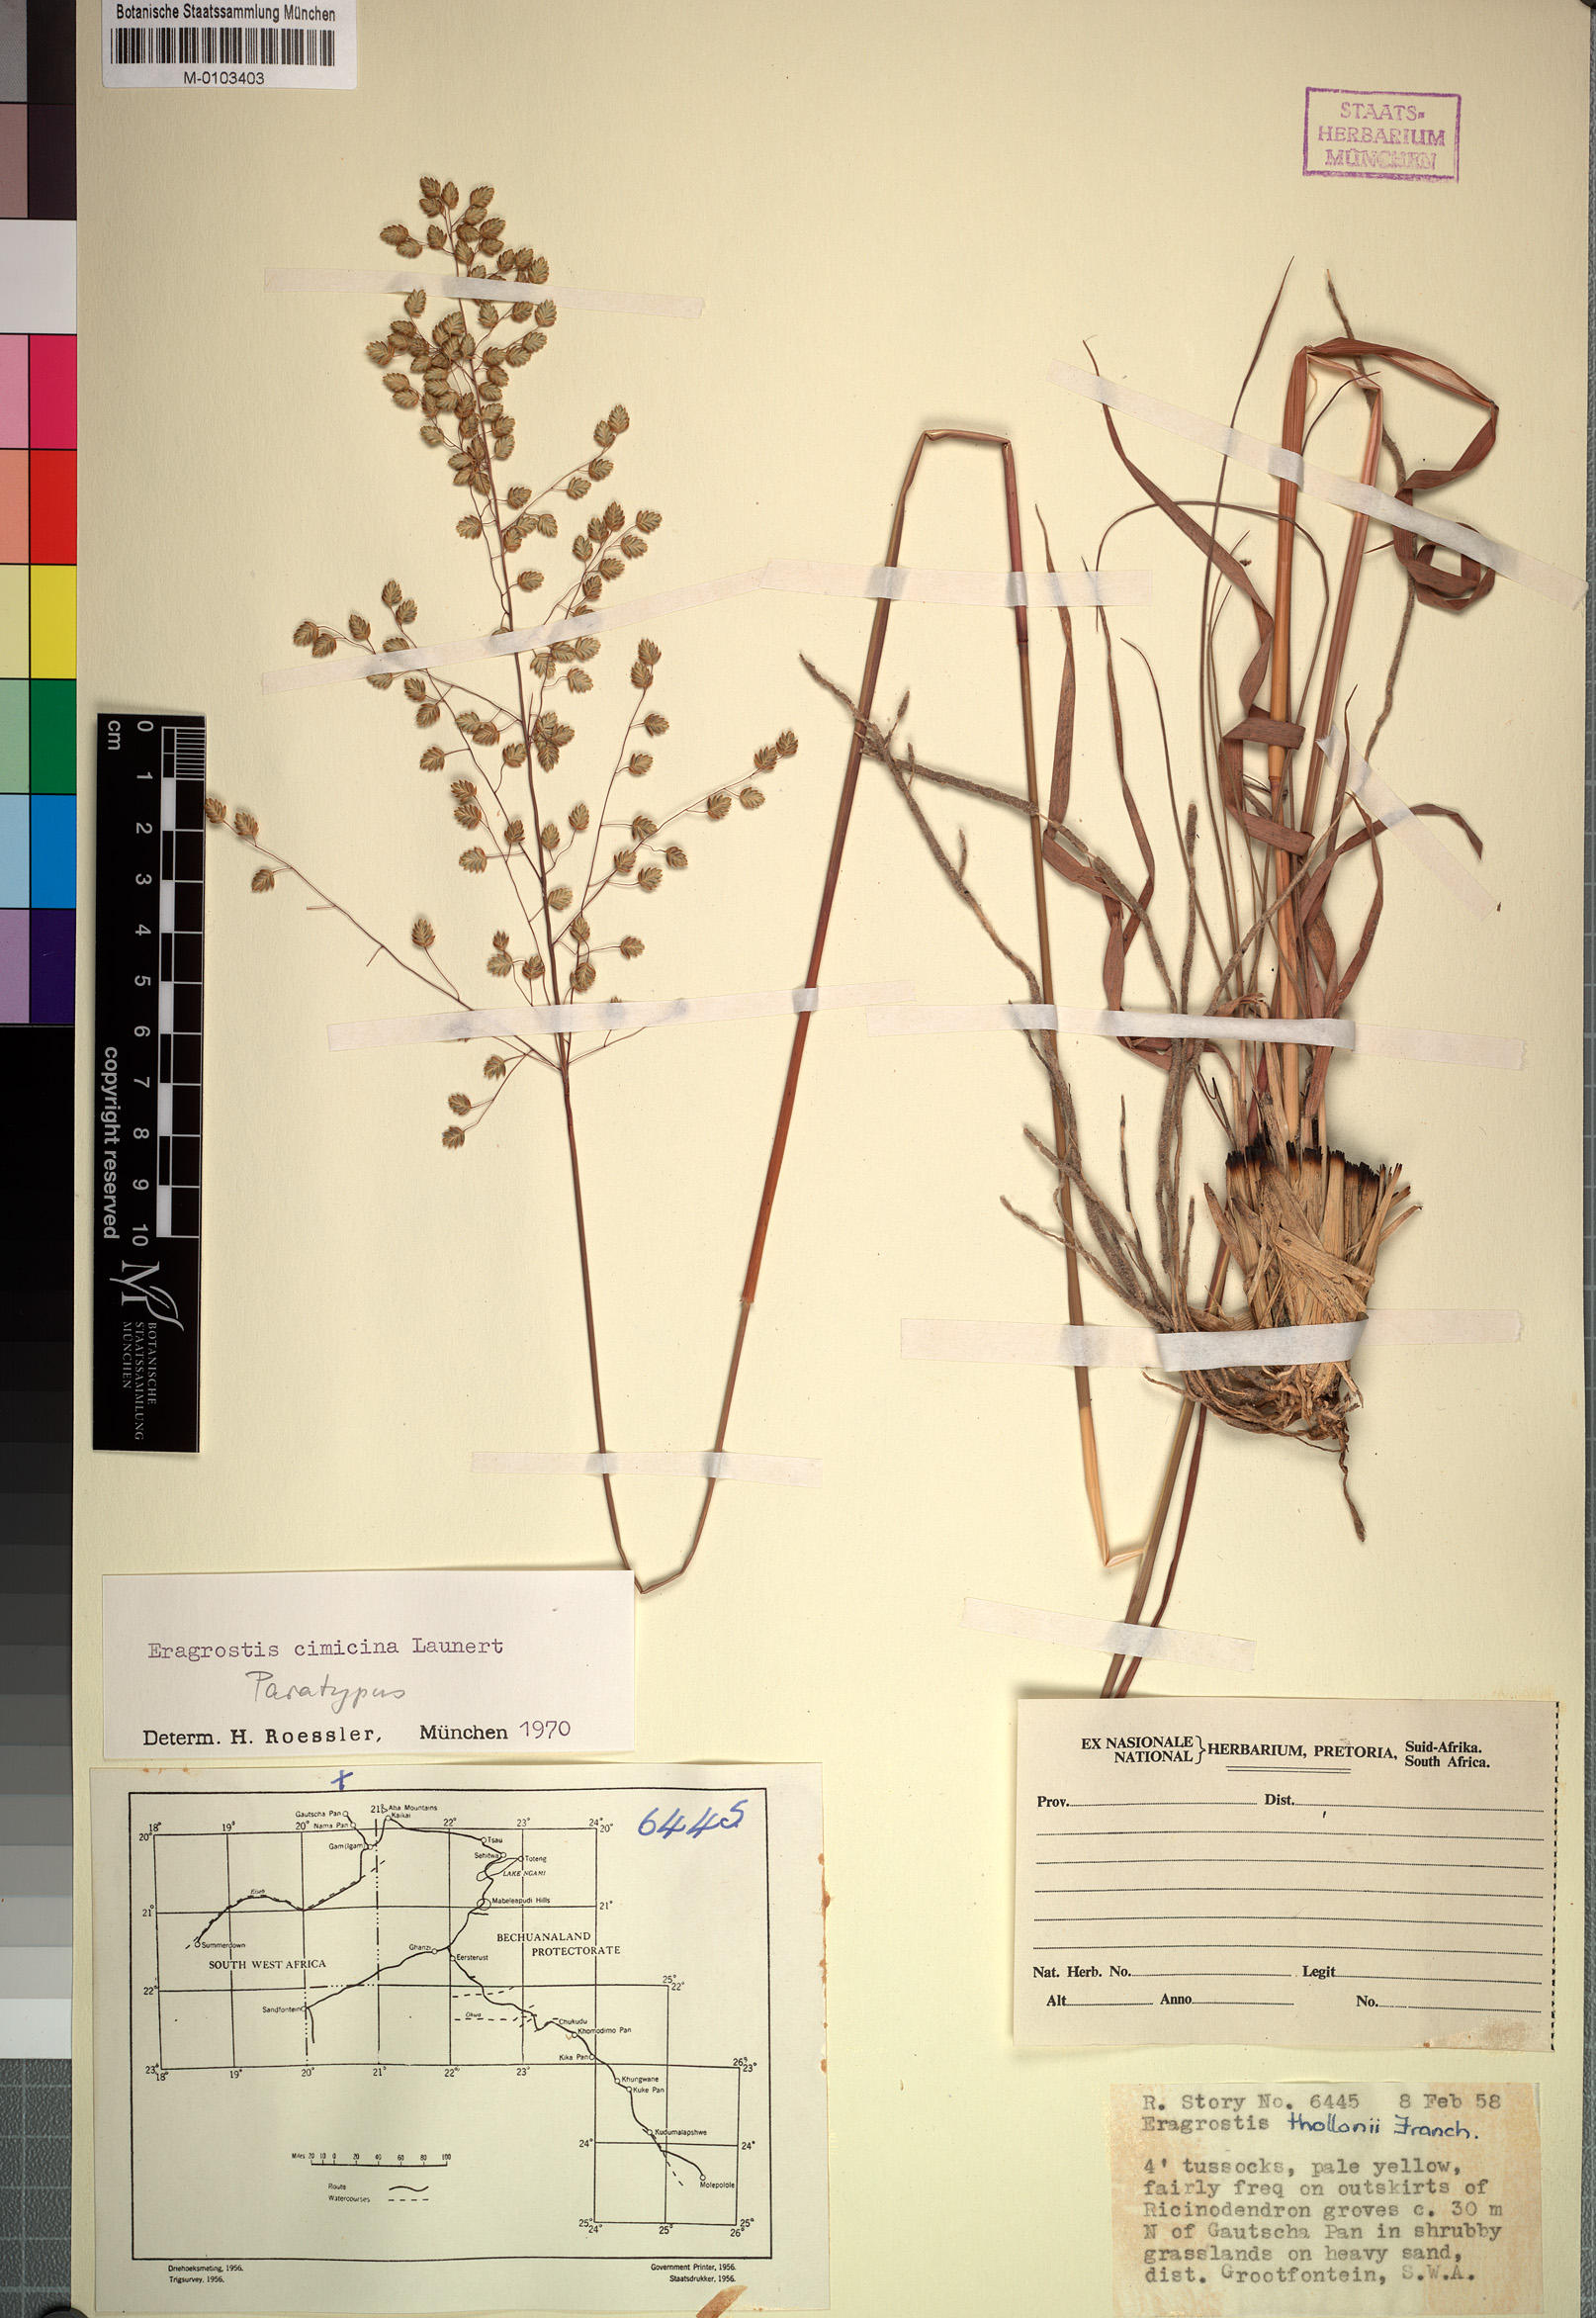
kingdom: Plantae
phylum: Tracheophyta
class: Liliopsida
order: Poales
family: Poaceae
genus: Eragrostis
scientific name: Eragrostis cimicina
